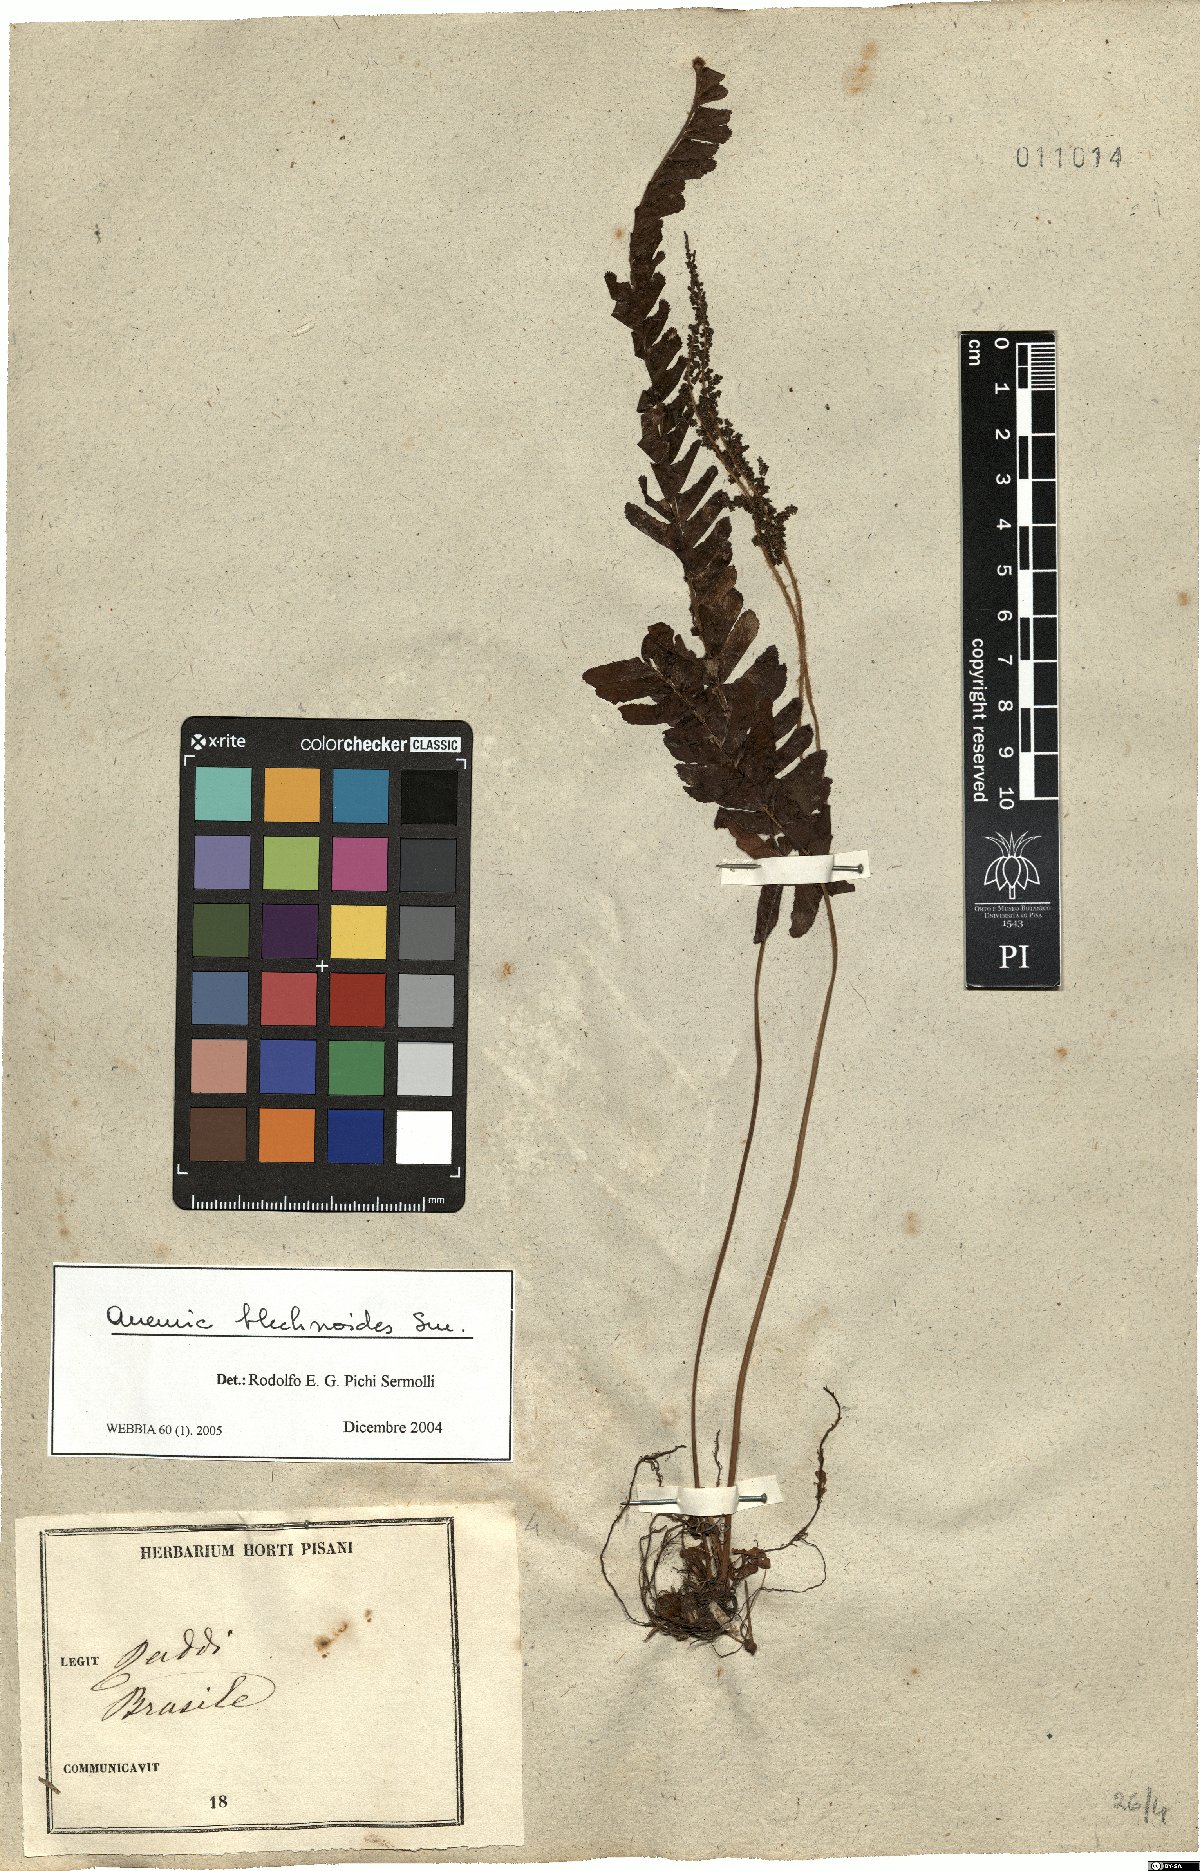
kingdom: Plantae
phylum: Tracheophyta
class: Polypodiopsida
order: Schizaeales
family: Anemiaceae
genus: Anemia
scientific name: Anemia blechnoides
